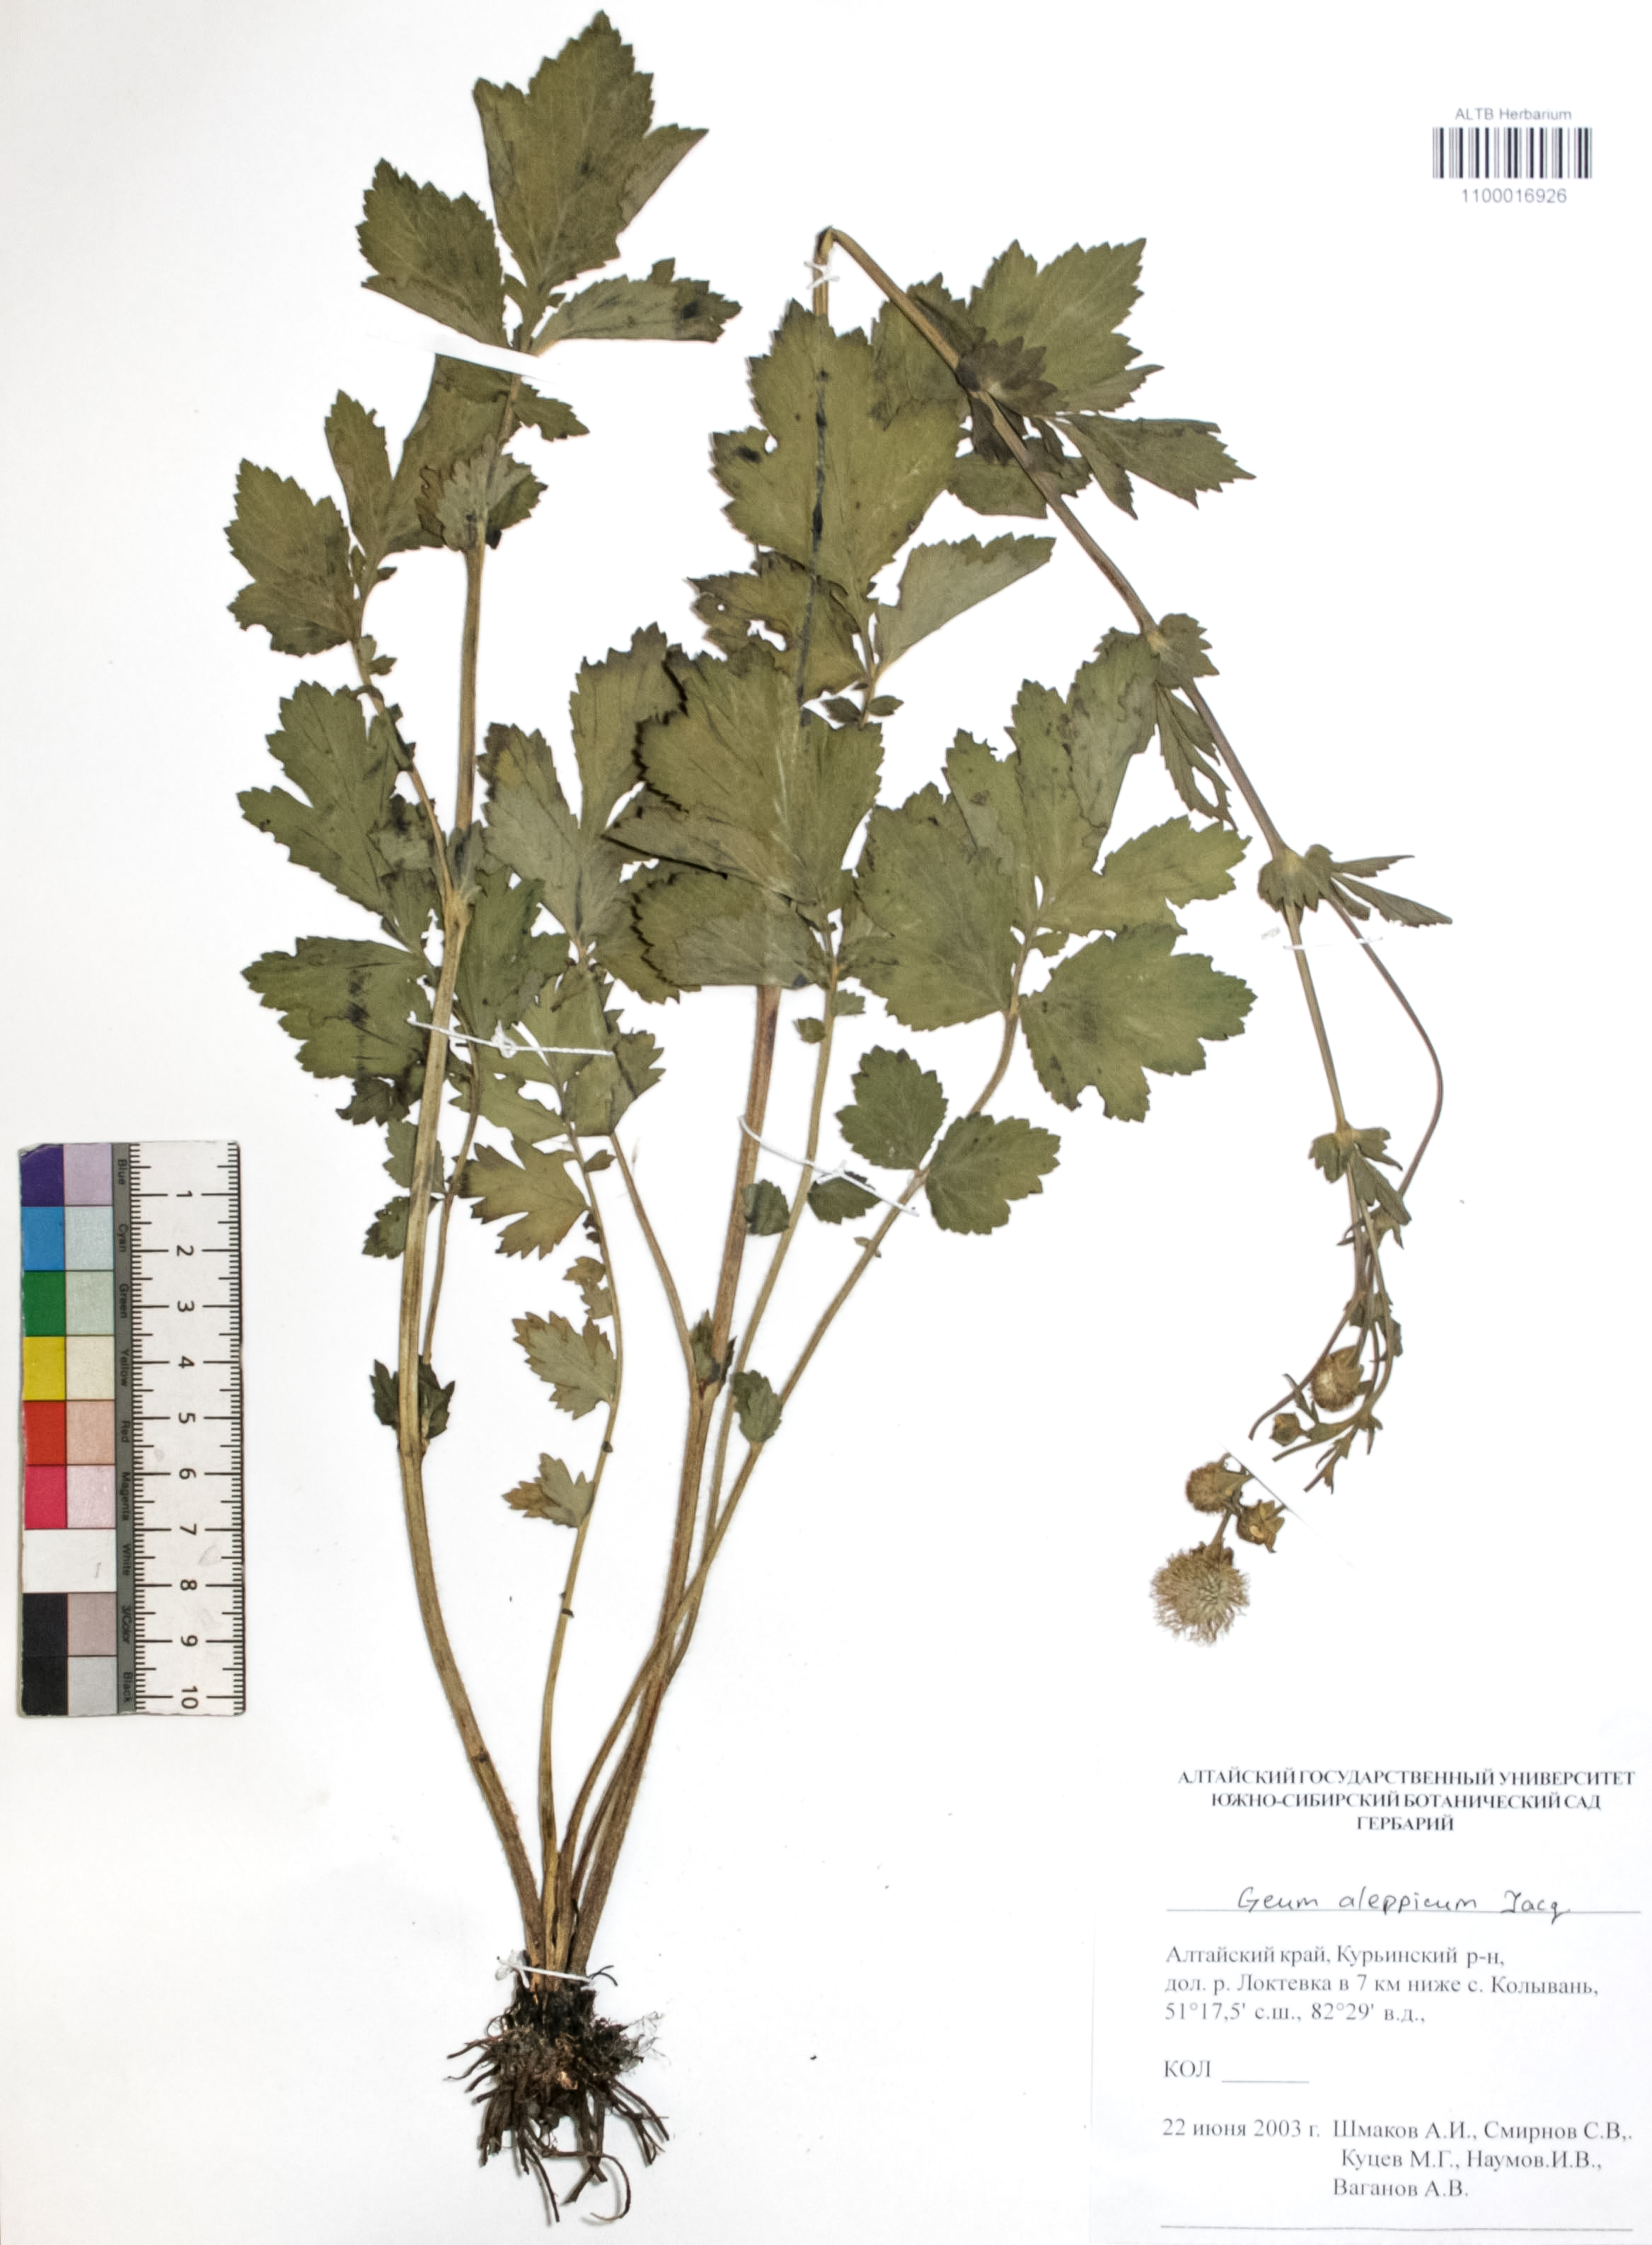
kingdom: Plantae
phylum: Tracheophyta
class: Magnoliopsida
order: Rosales
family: Rosaceae
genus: Geum
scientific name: Geum aleppicum
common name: Yellow avens
